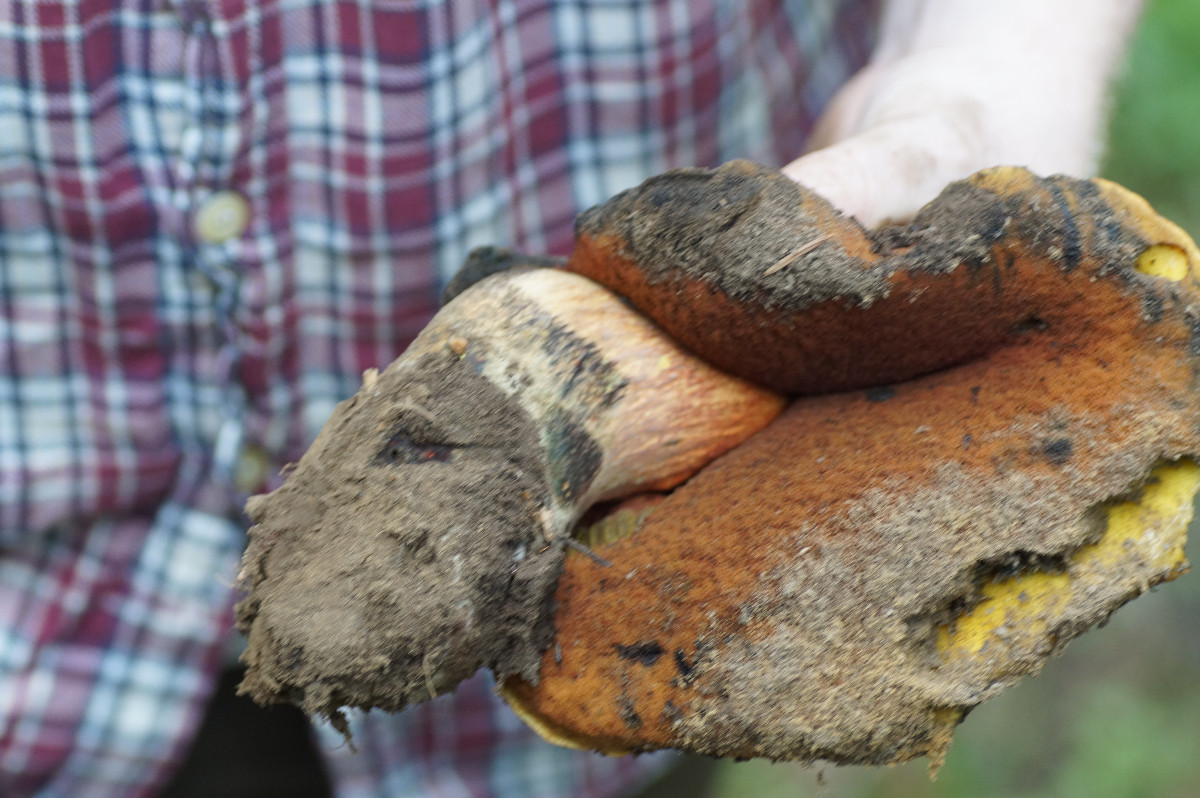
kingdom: Fungi
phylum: Basidiomycota
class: Agaricomycetes
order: Boletales
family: Boletaceae
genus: Neoboletus
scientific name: Neoboletus erythropus
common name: punktstokket indigorørhat
